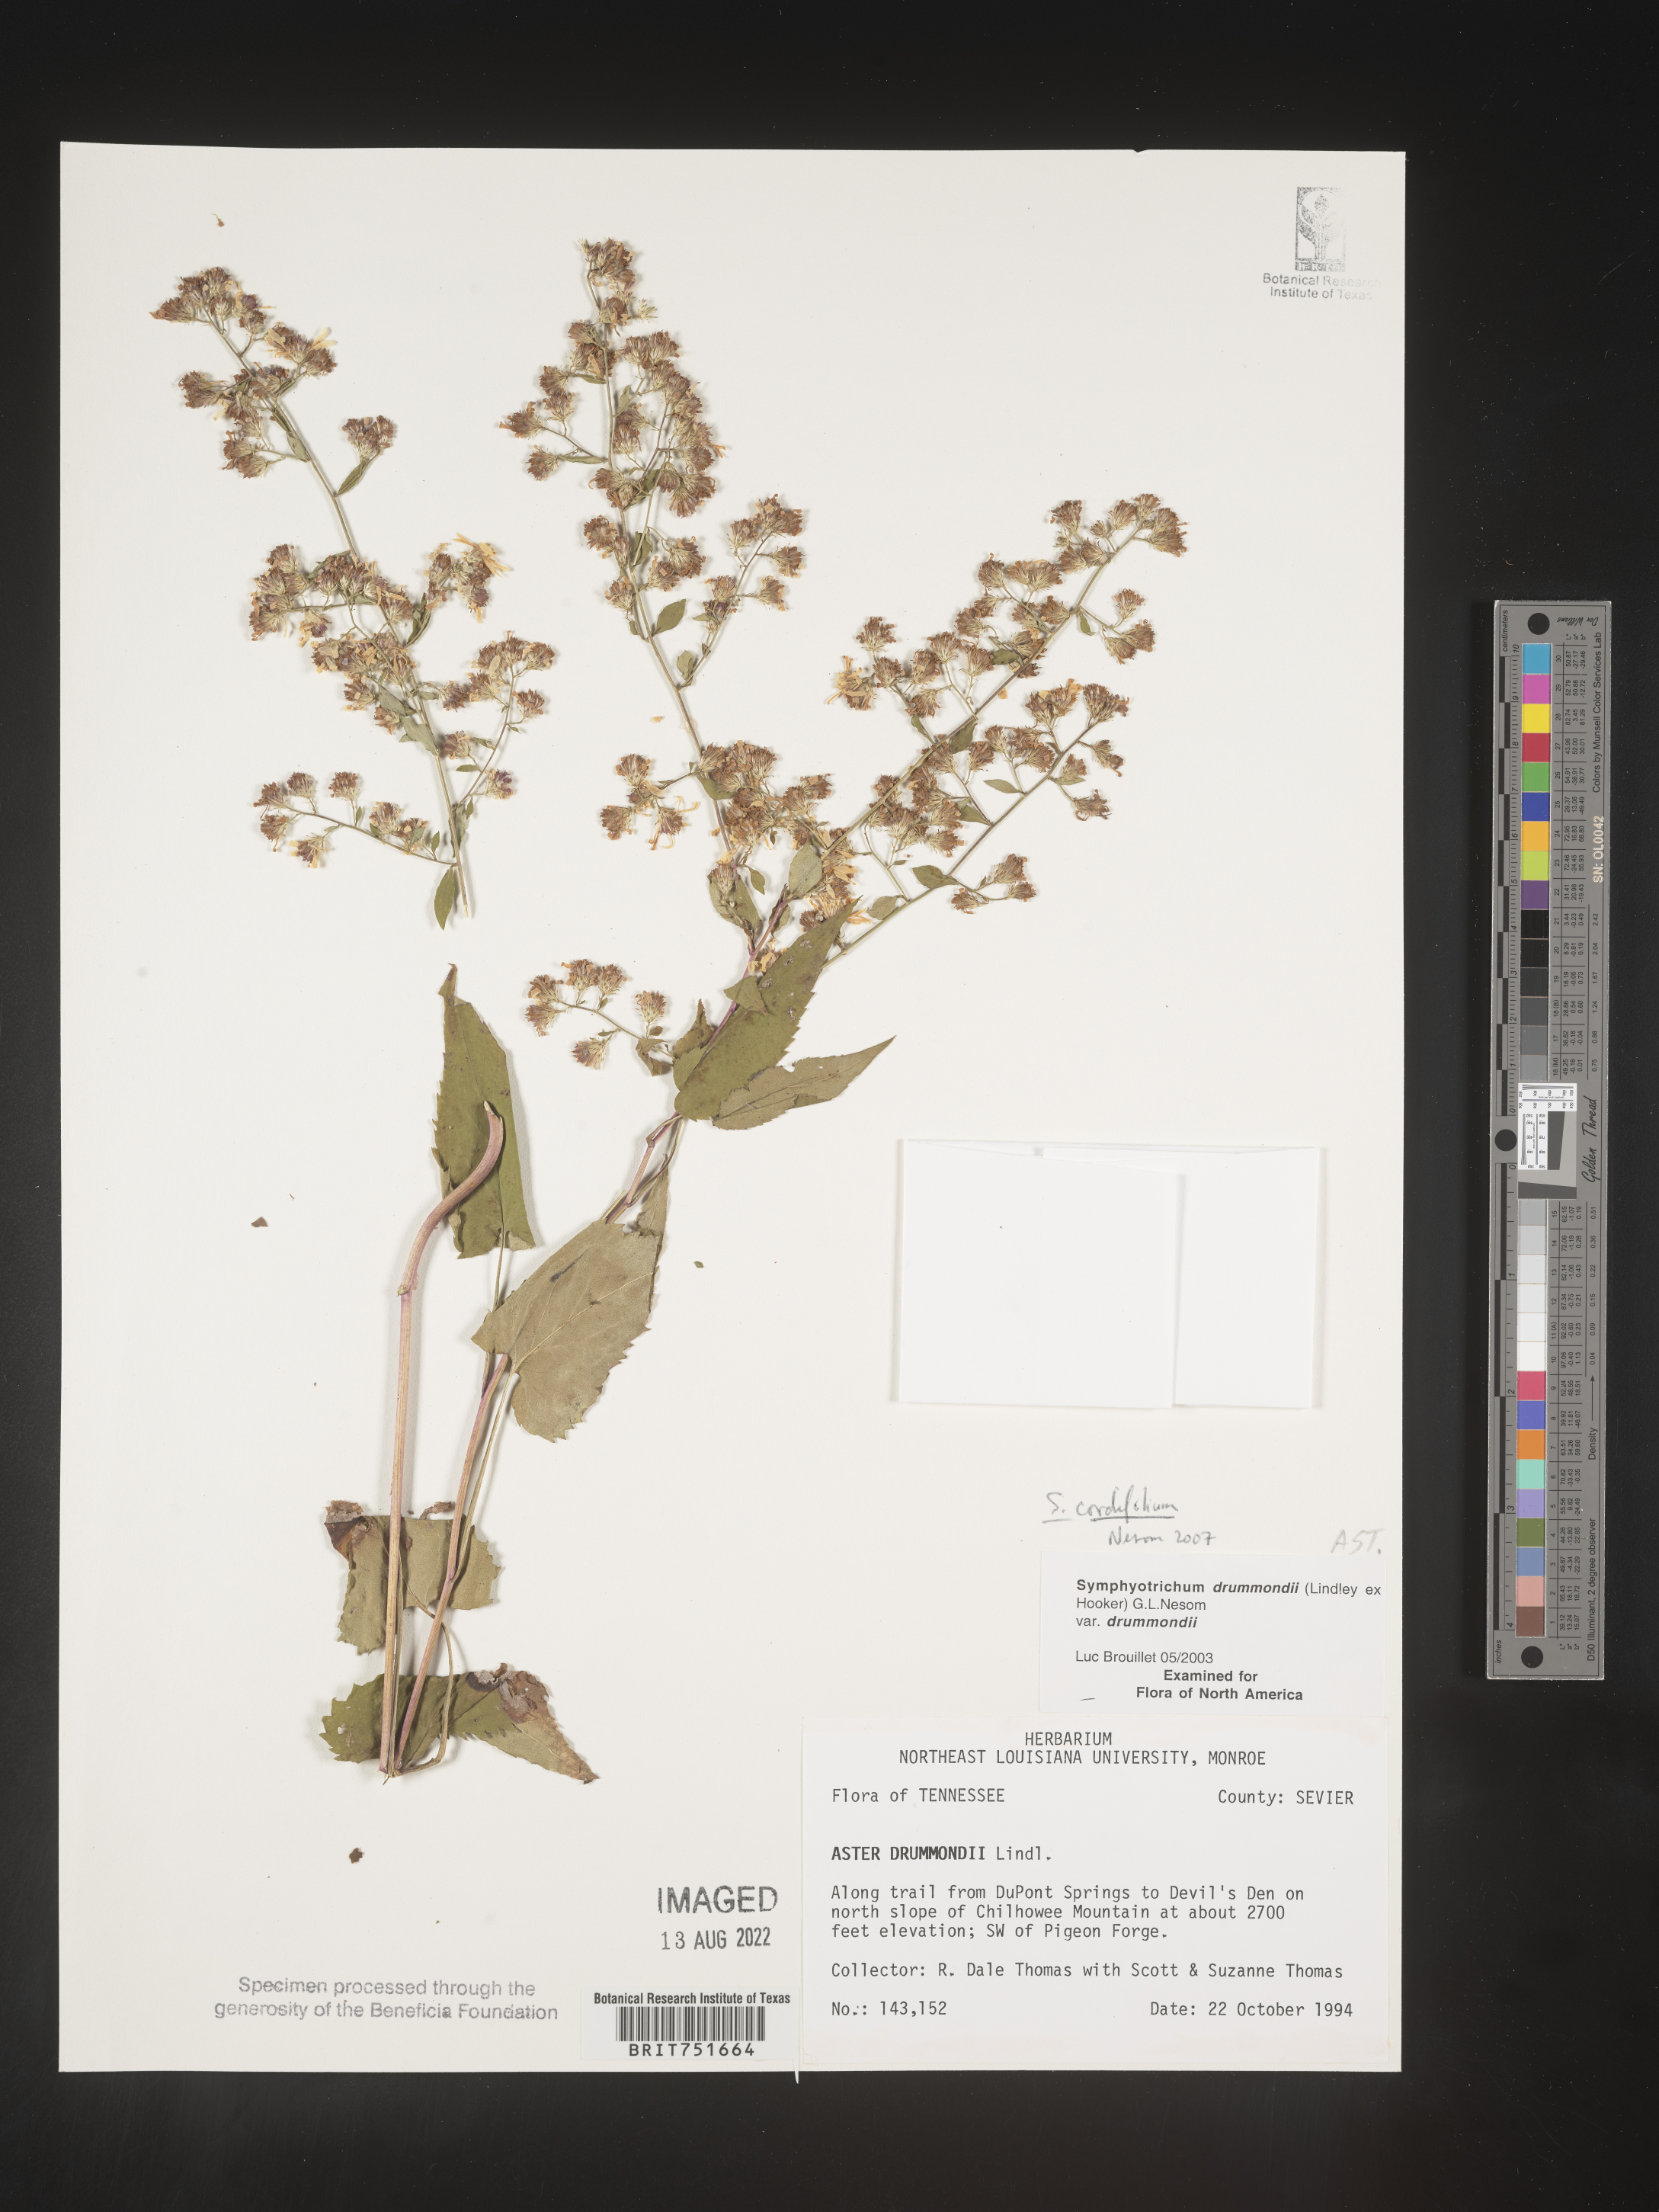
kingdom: Plantae
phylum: Tracheophyta
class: Magnoliopsida
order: Asterales
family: Asteraceae
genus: Symphyotrichum
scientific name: Symphyotrichum cordifolium
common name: Beeweed
